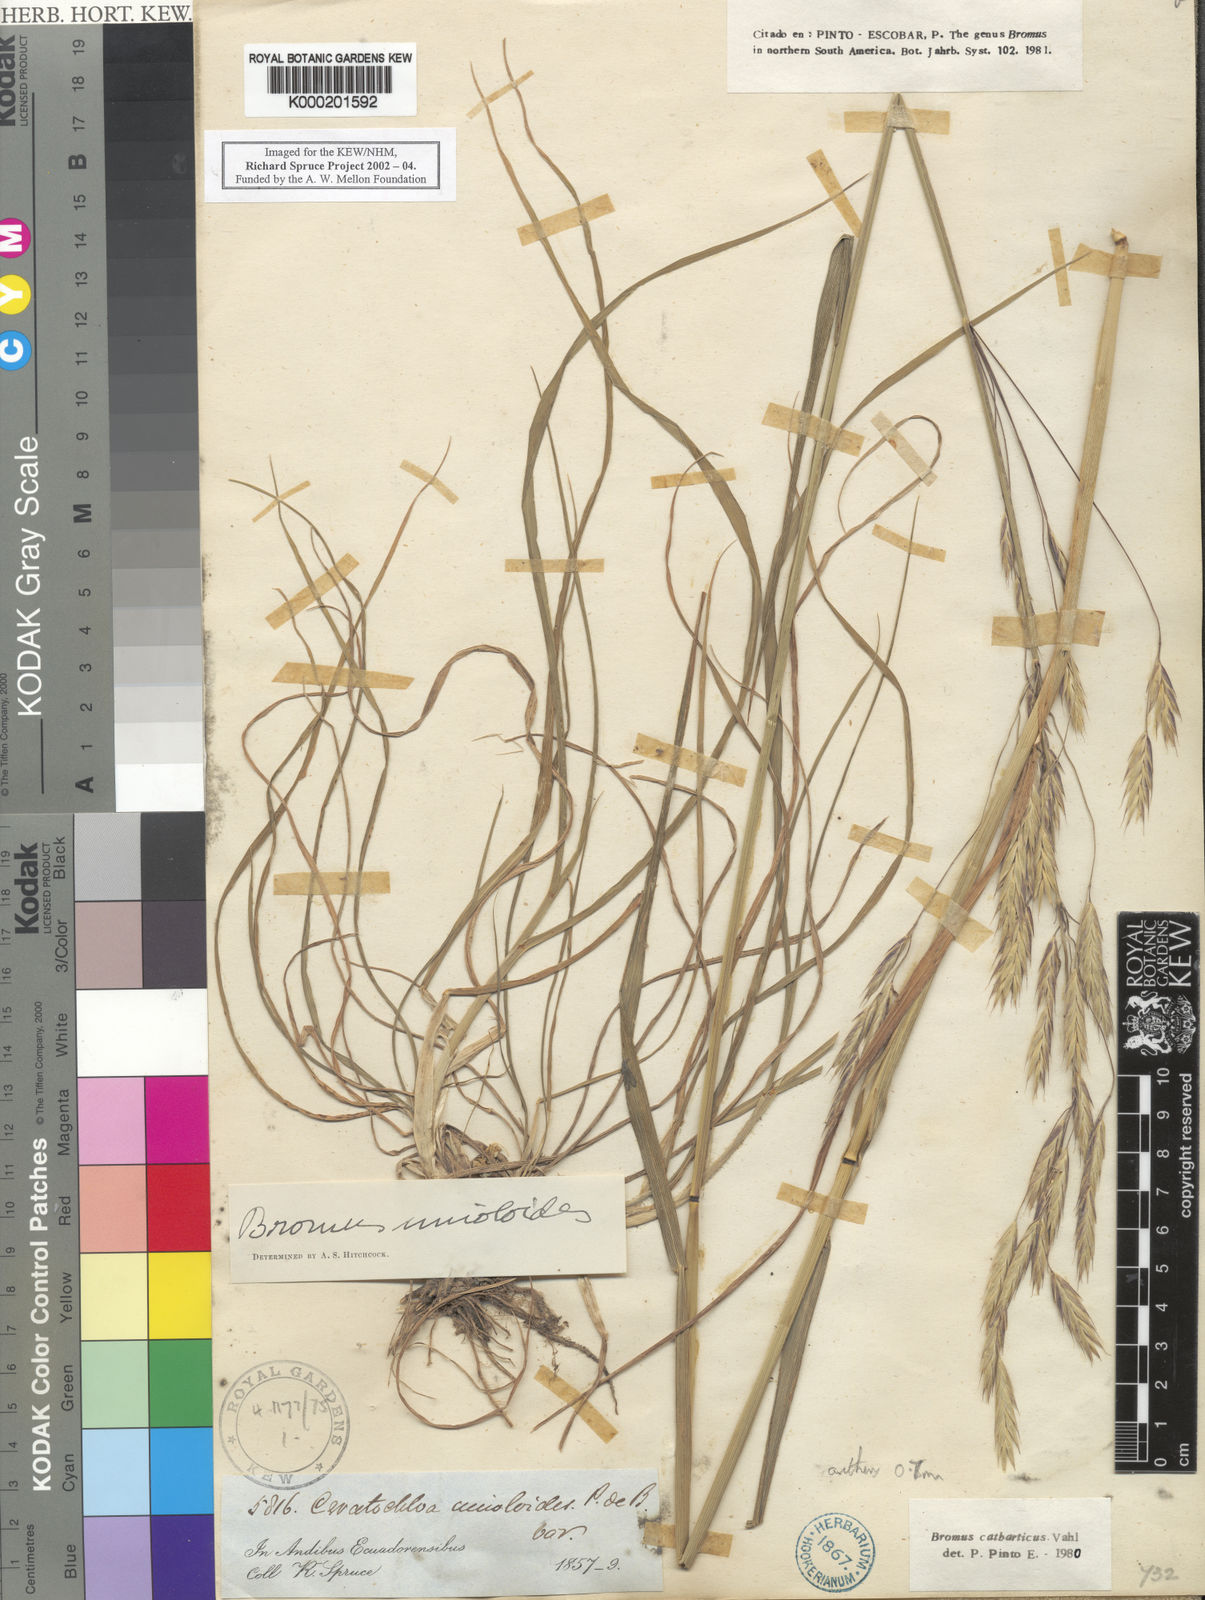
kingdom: Plantae
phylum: Tracheophyta
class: Liliopsida
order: Poales
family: Poaceae
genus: Bromus
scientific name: Bromus catharticus
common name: Rescuegrass
